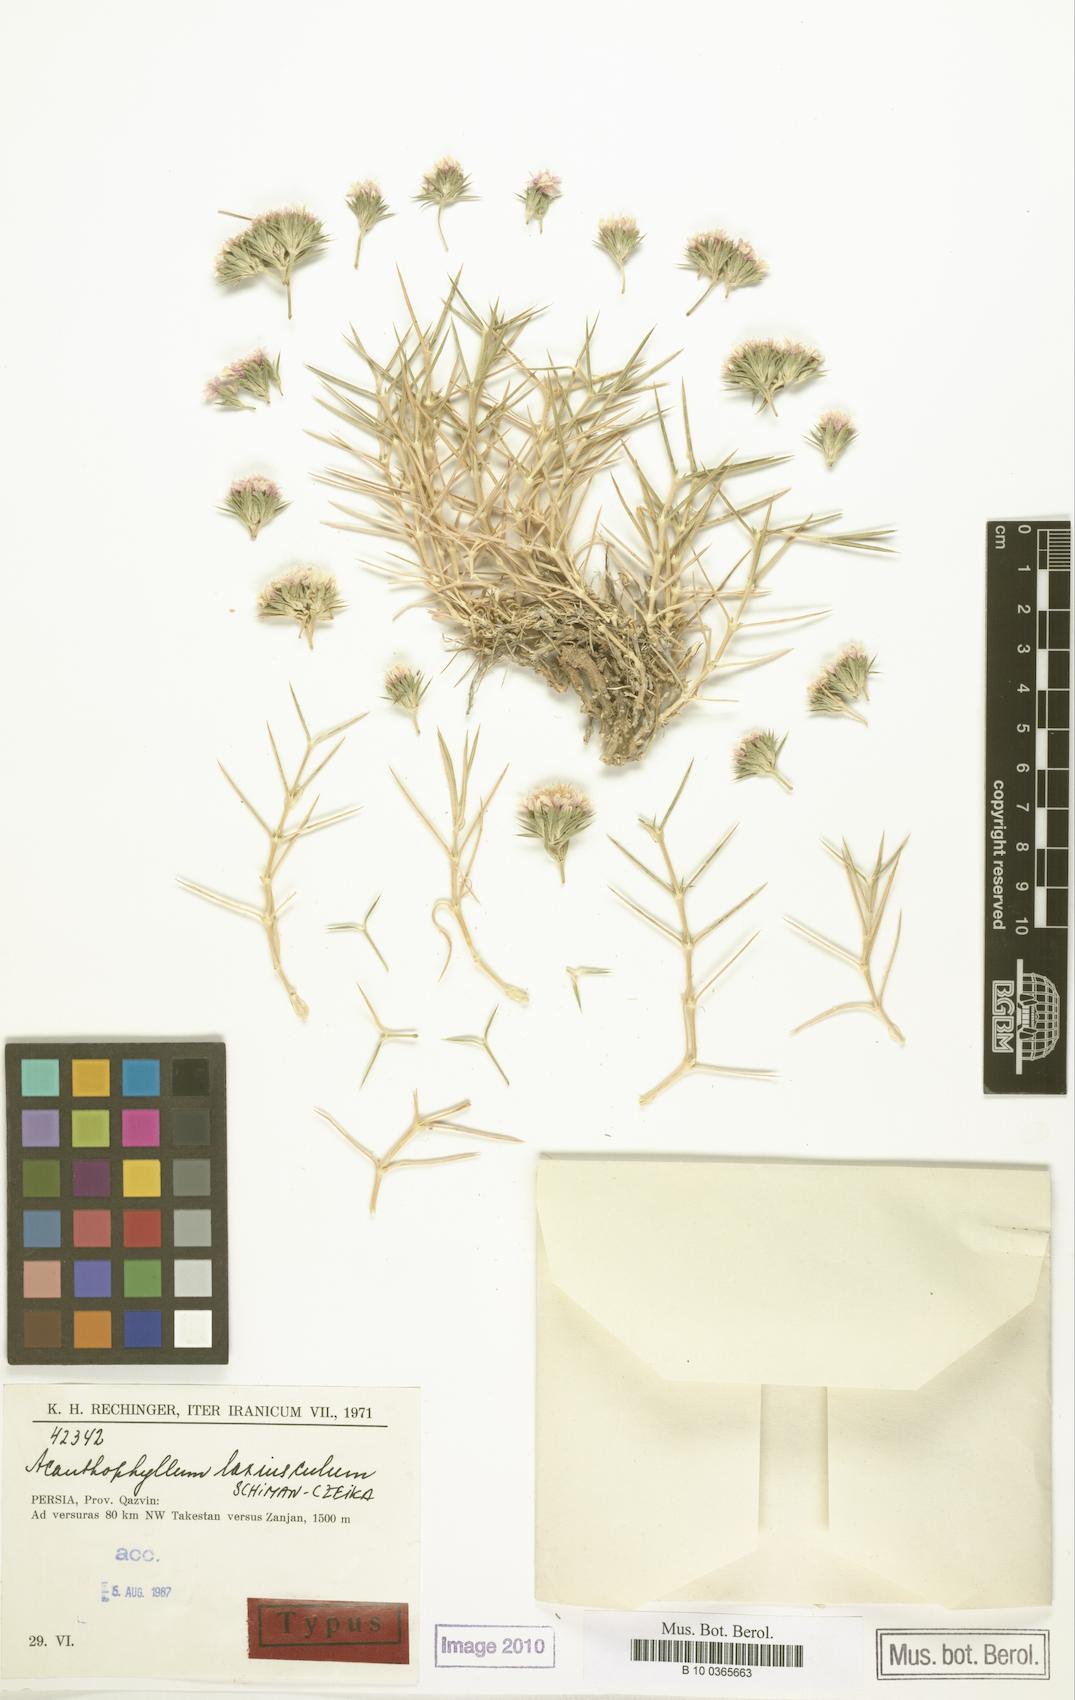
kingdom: Plantae
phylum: Tracheophyta
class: Magnoliopsida
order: Caryophyllales
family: Caryophyllaceae
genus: Acanthophyllum
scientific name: Acanthophyllum laxiusculum
